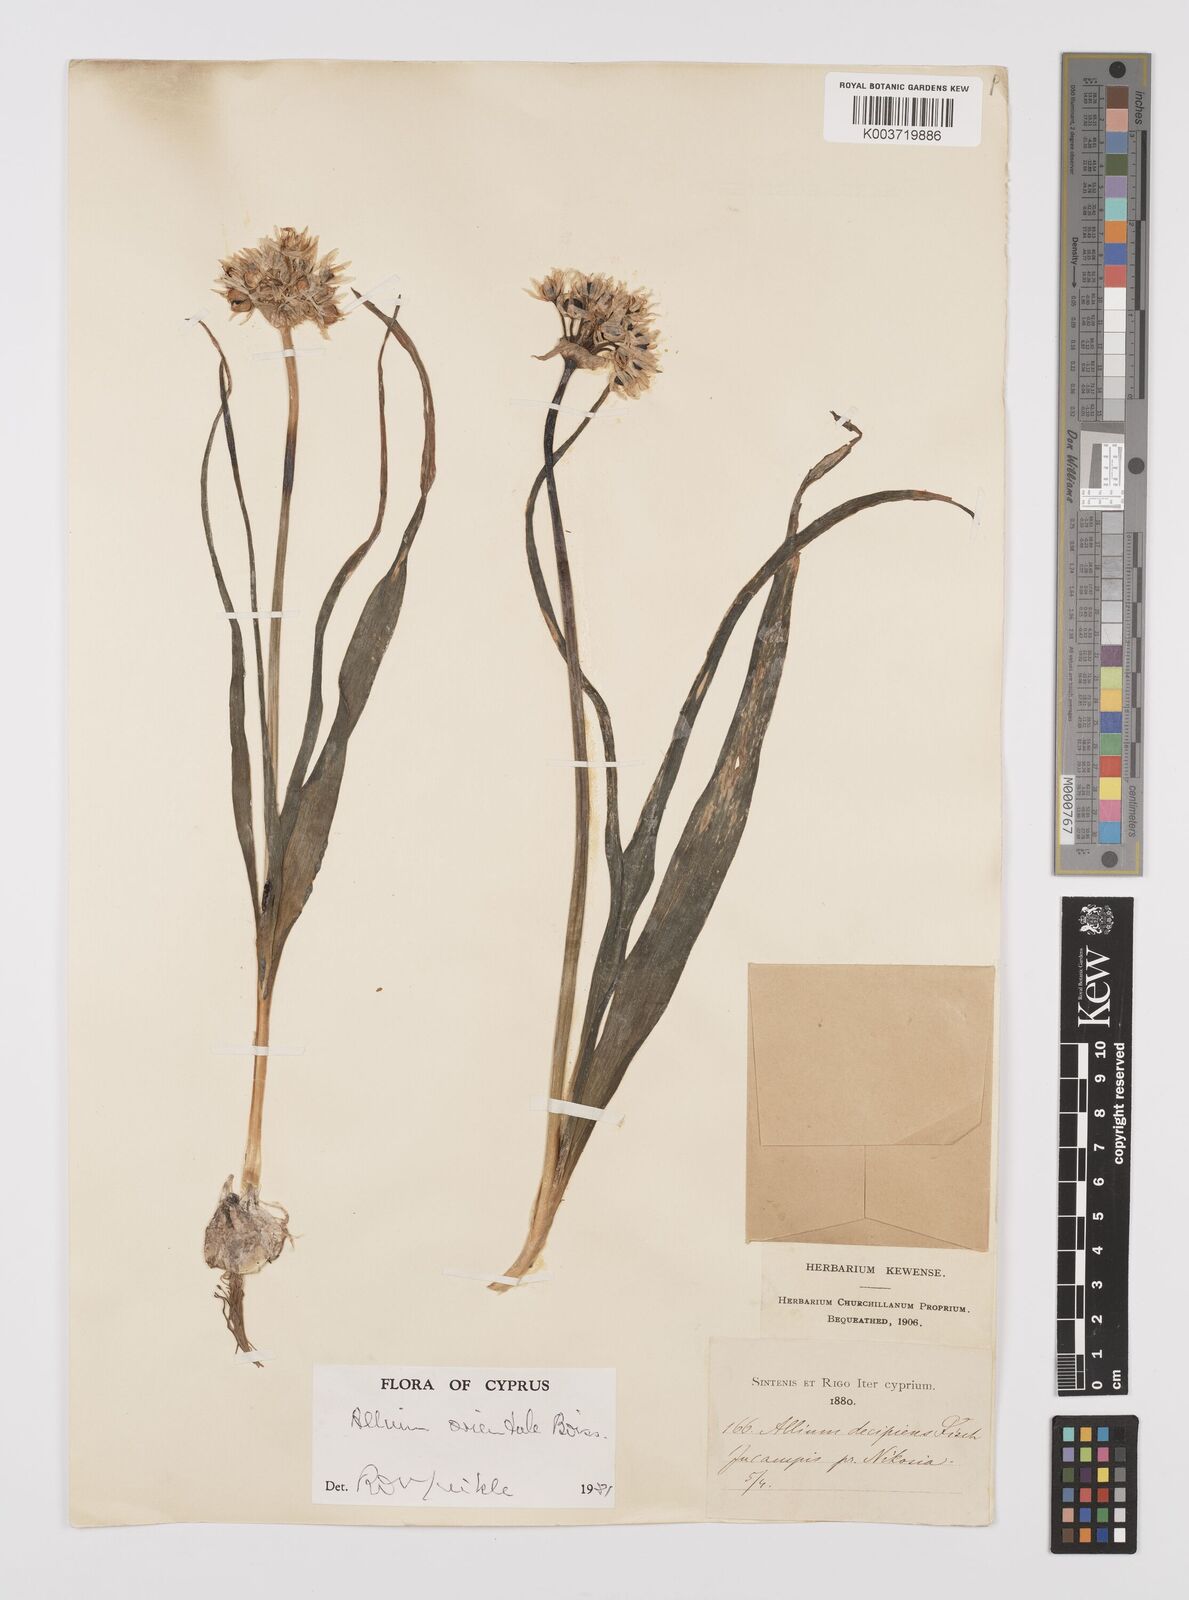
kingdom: Plantae
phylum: Tracheophyta
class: Liliopsida
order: Asparagales
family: Amaryllidaceae
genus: Allium
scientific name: Allium orientale
